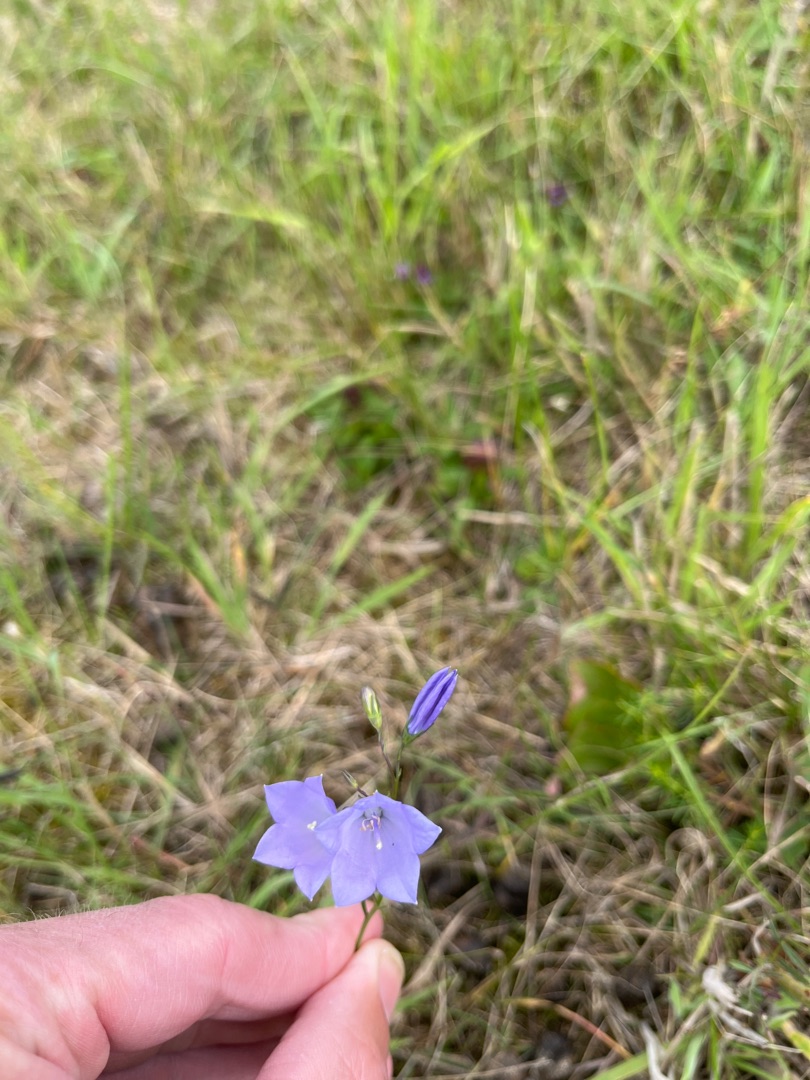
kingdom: Plantae
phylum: Tracheophyta
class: Magnoliopsida
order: Asterales
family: Campanulaceae
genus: Campanula
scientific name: Campanula rotundifolia
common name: Liden klokke
